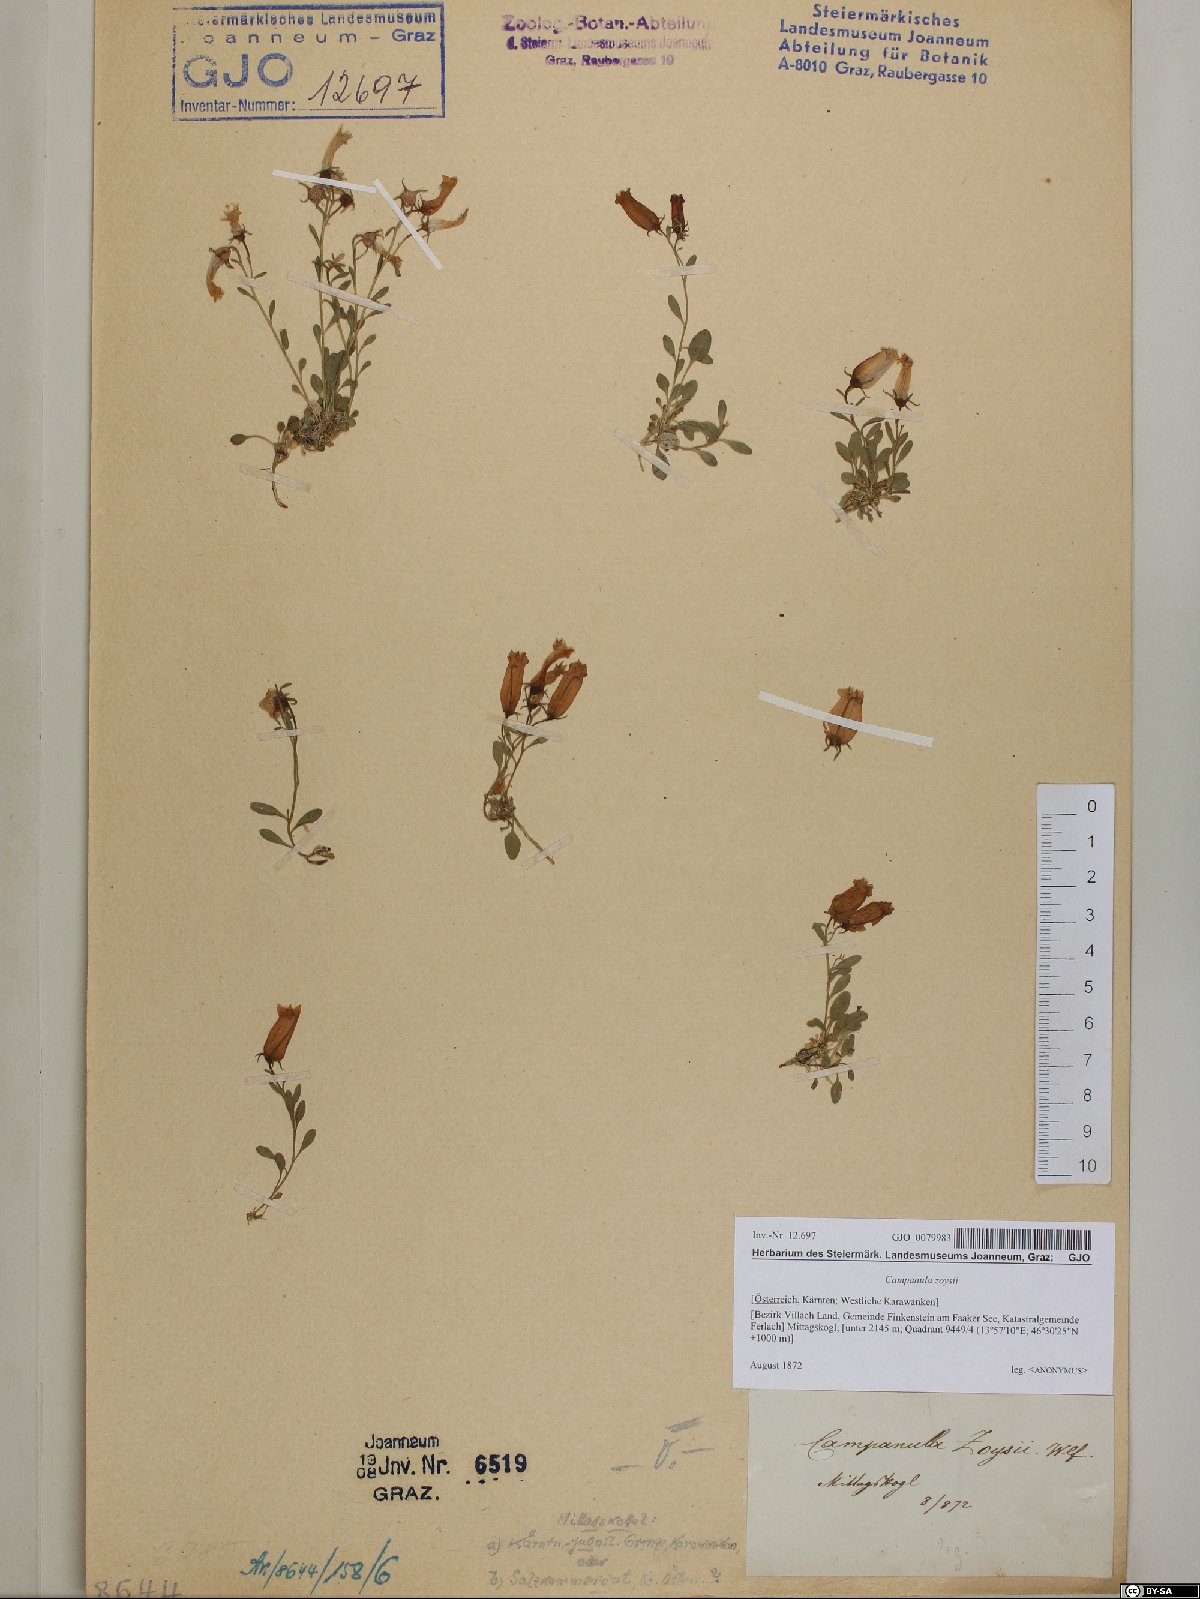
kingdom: Plantae
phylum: Tracheophyta
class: Magnoliopsida
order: Asterales
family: Campanulaceae
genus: Favratia
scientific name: Favratia zoysii
